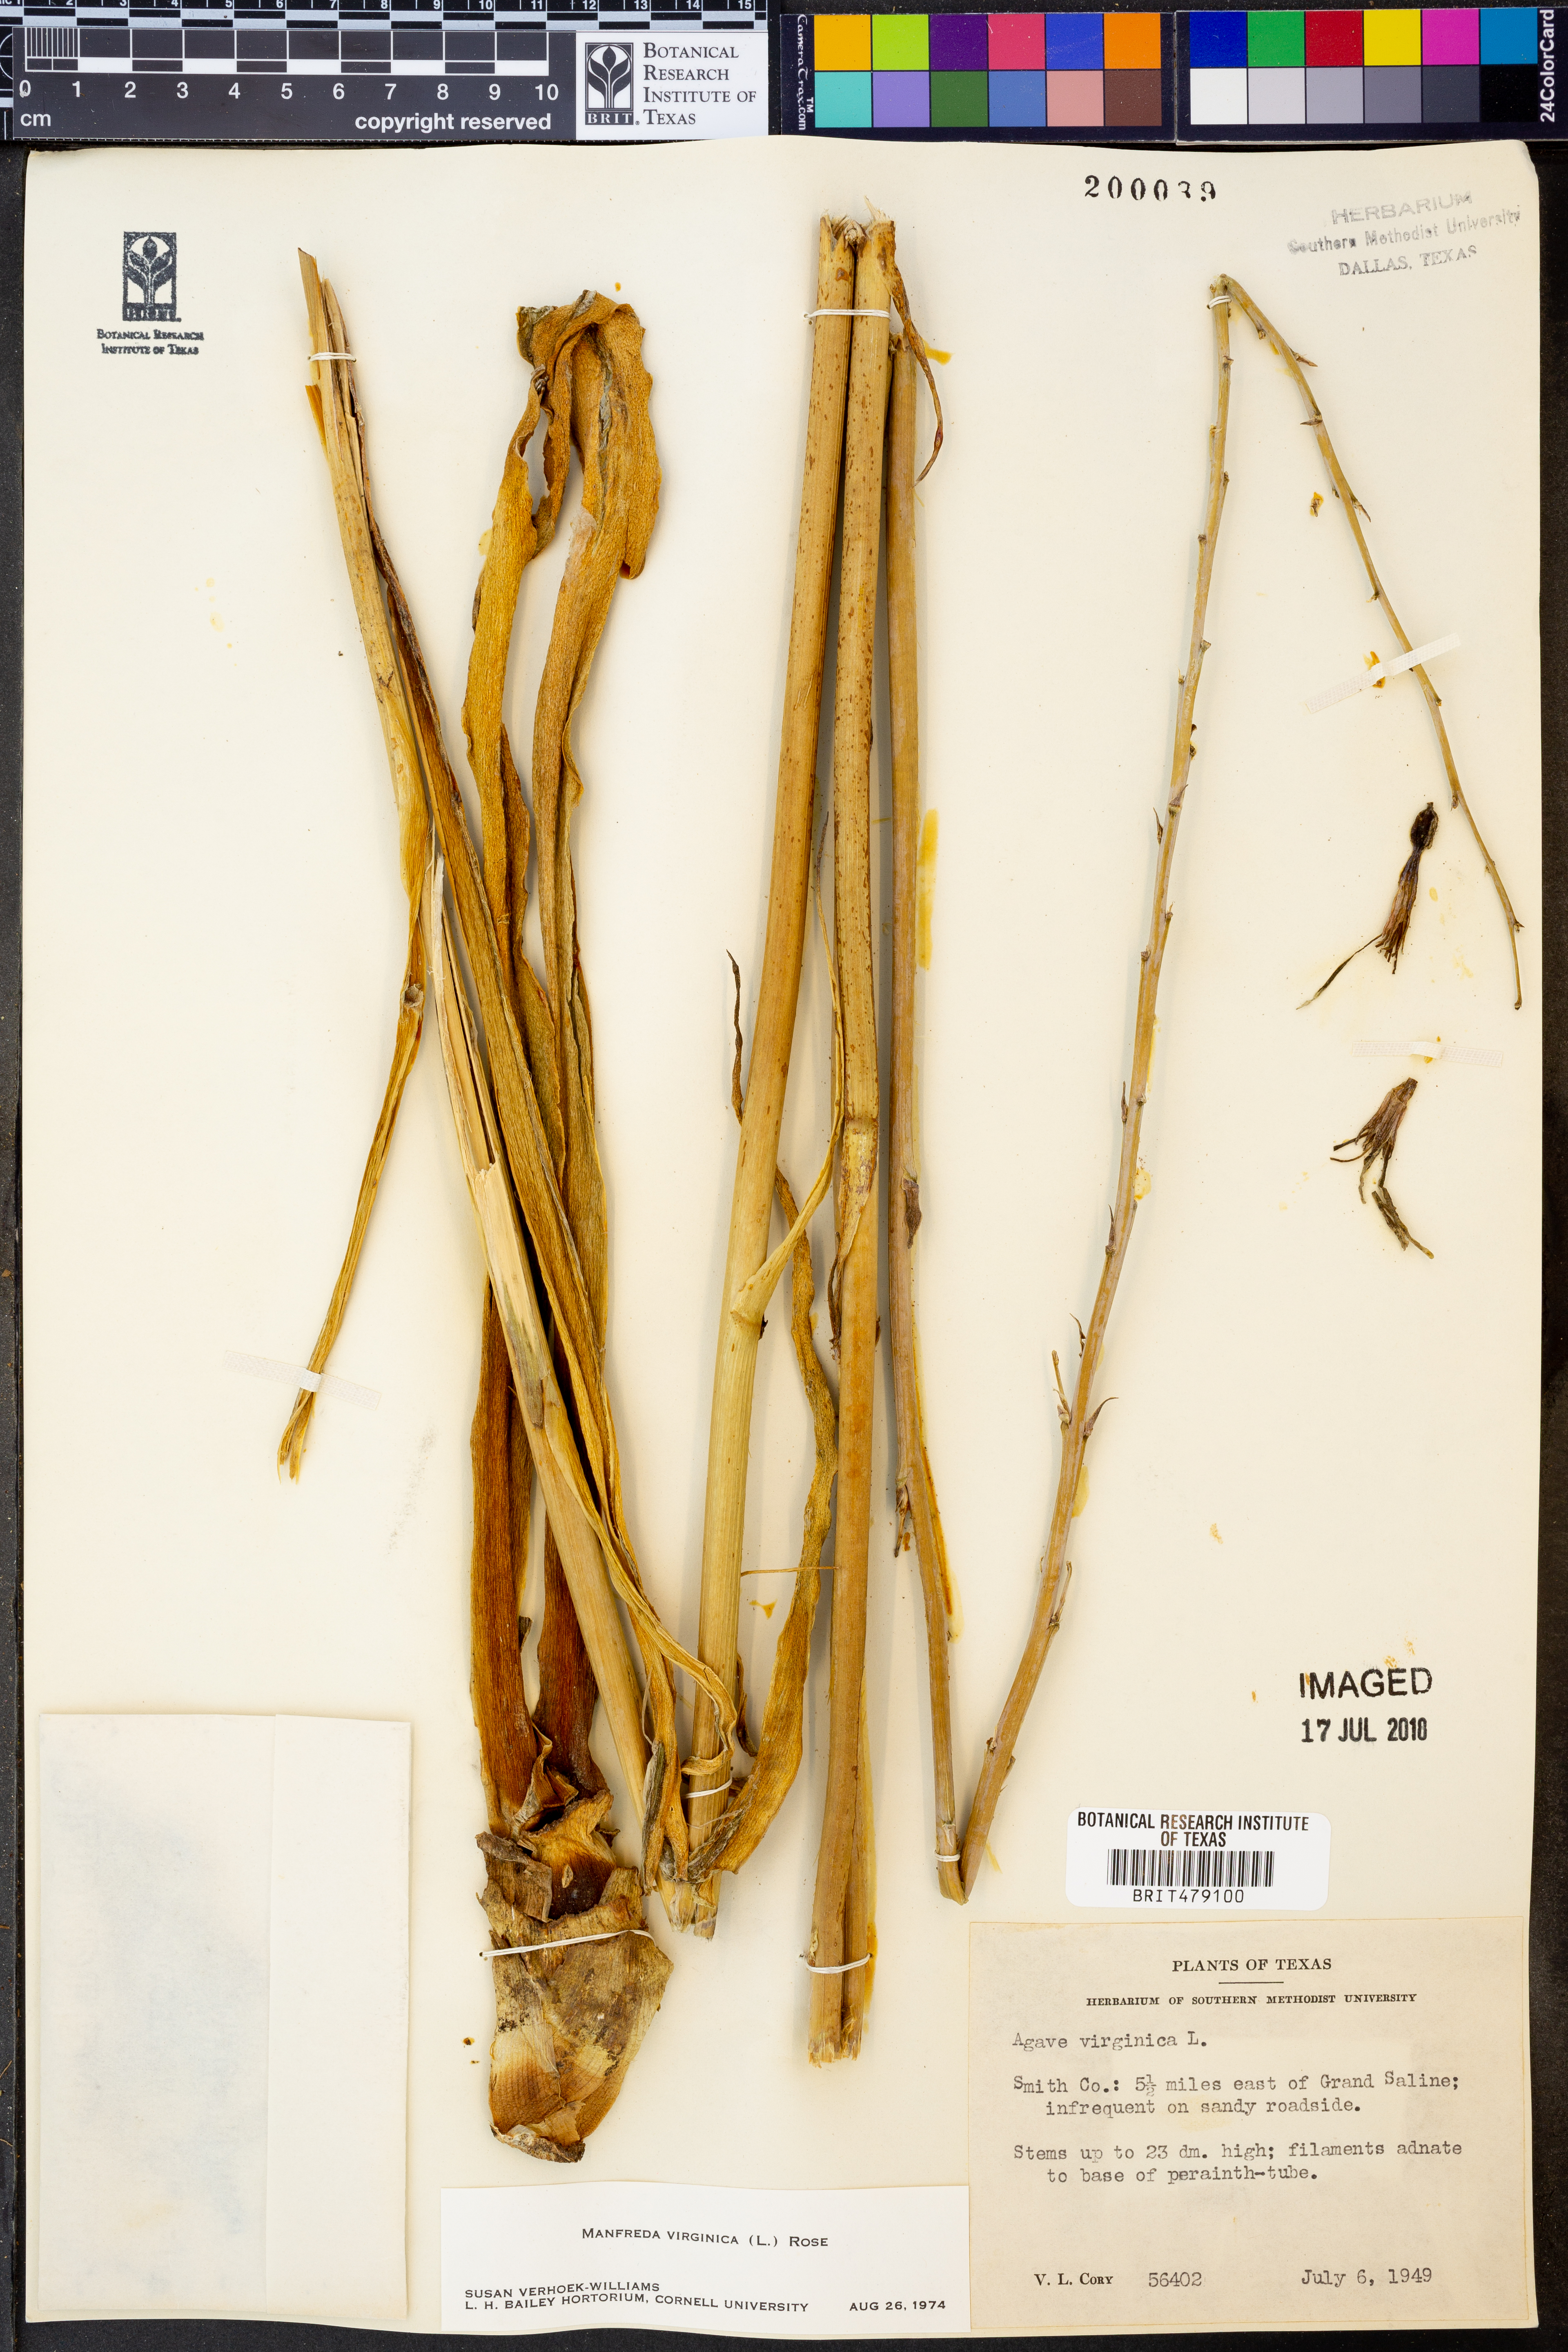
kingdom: Plantae
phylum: Tracheophyta
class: Liliopsida
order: Asparagales
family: Asparagaceae
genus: Agave
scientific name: Agave virginica
